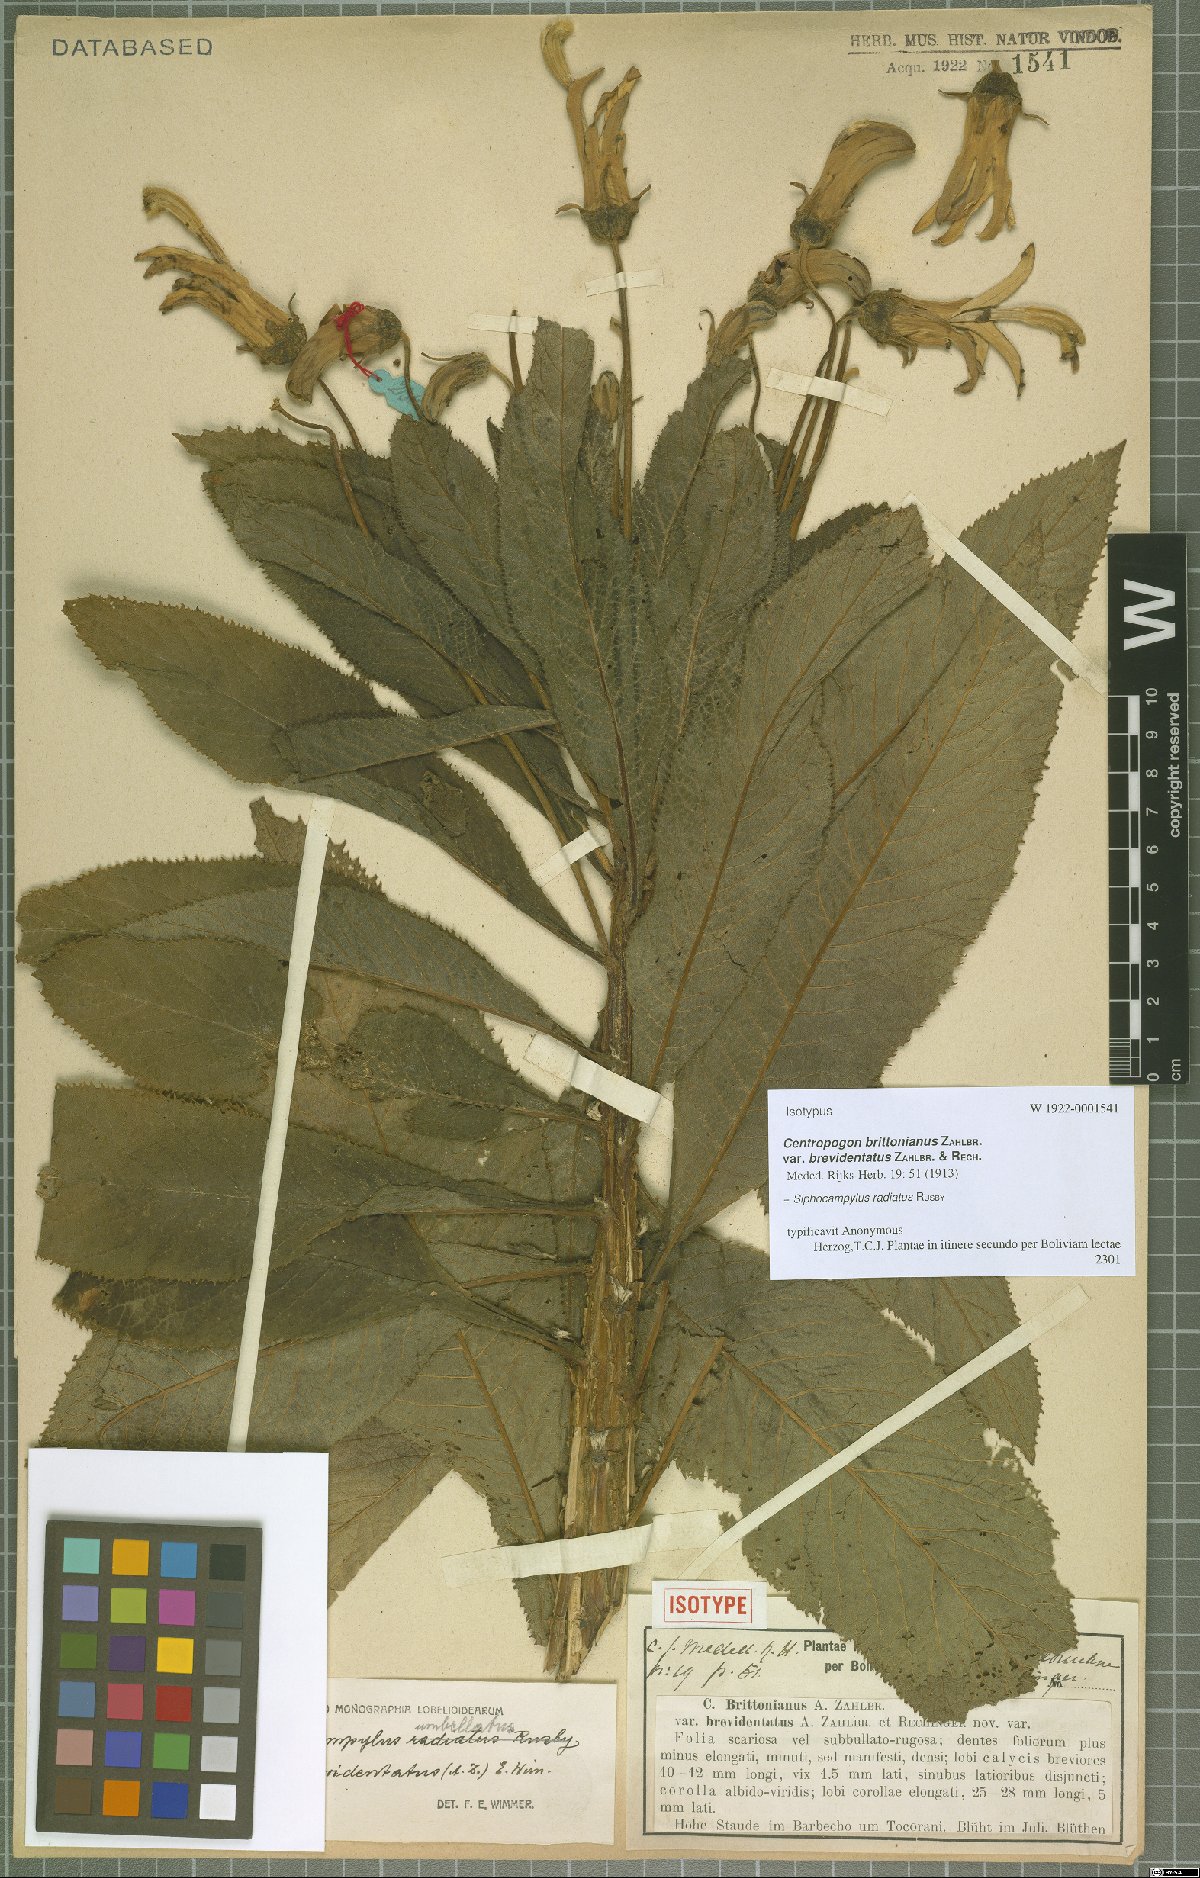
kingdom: Plantae
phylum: Tracheophyta
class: Magnoliopsida
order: Asterales
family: Campanulaceae
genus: Siphocampylus
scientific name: Siphocampylus radiatus
